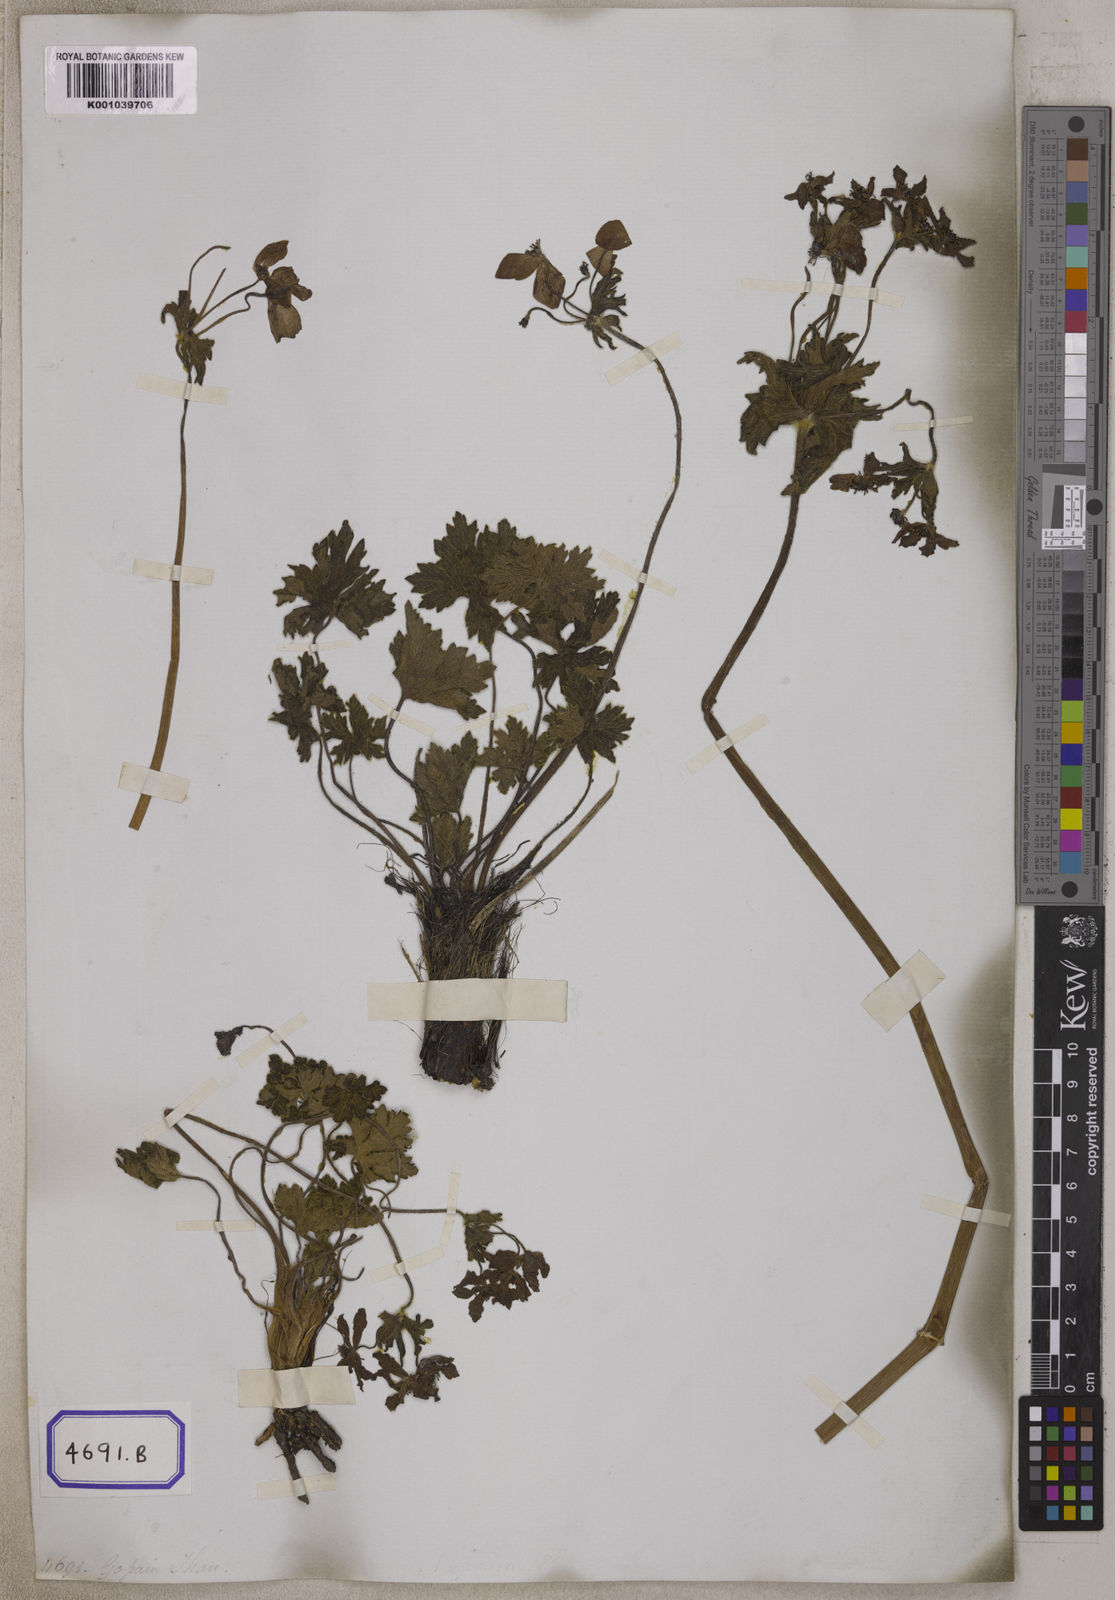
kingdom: Plantae
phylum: Tracheophyta
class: Magnoliopsida
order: Ranunculales
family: Ranunculaceae
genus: Anemonastrum
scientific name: Anemonastrum polyanthes
